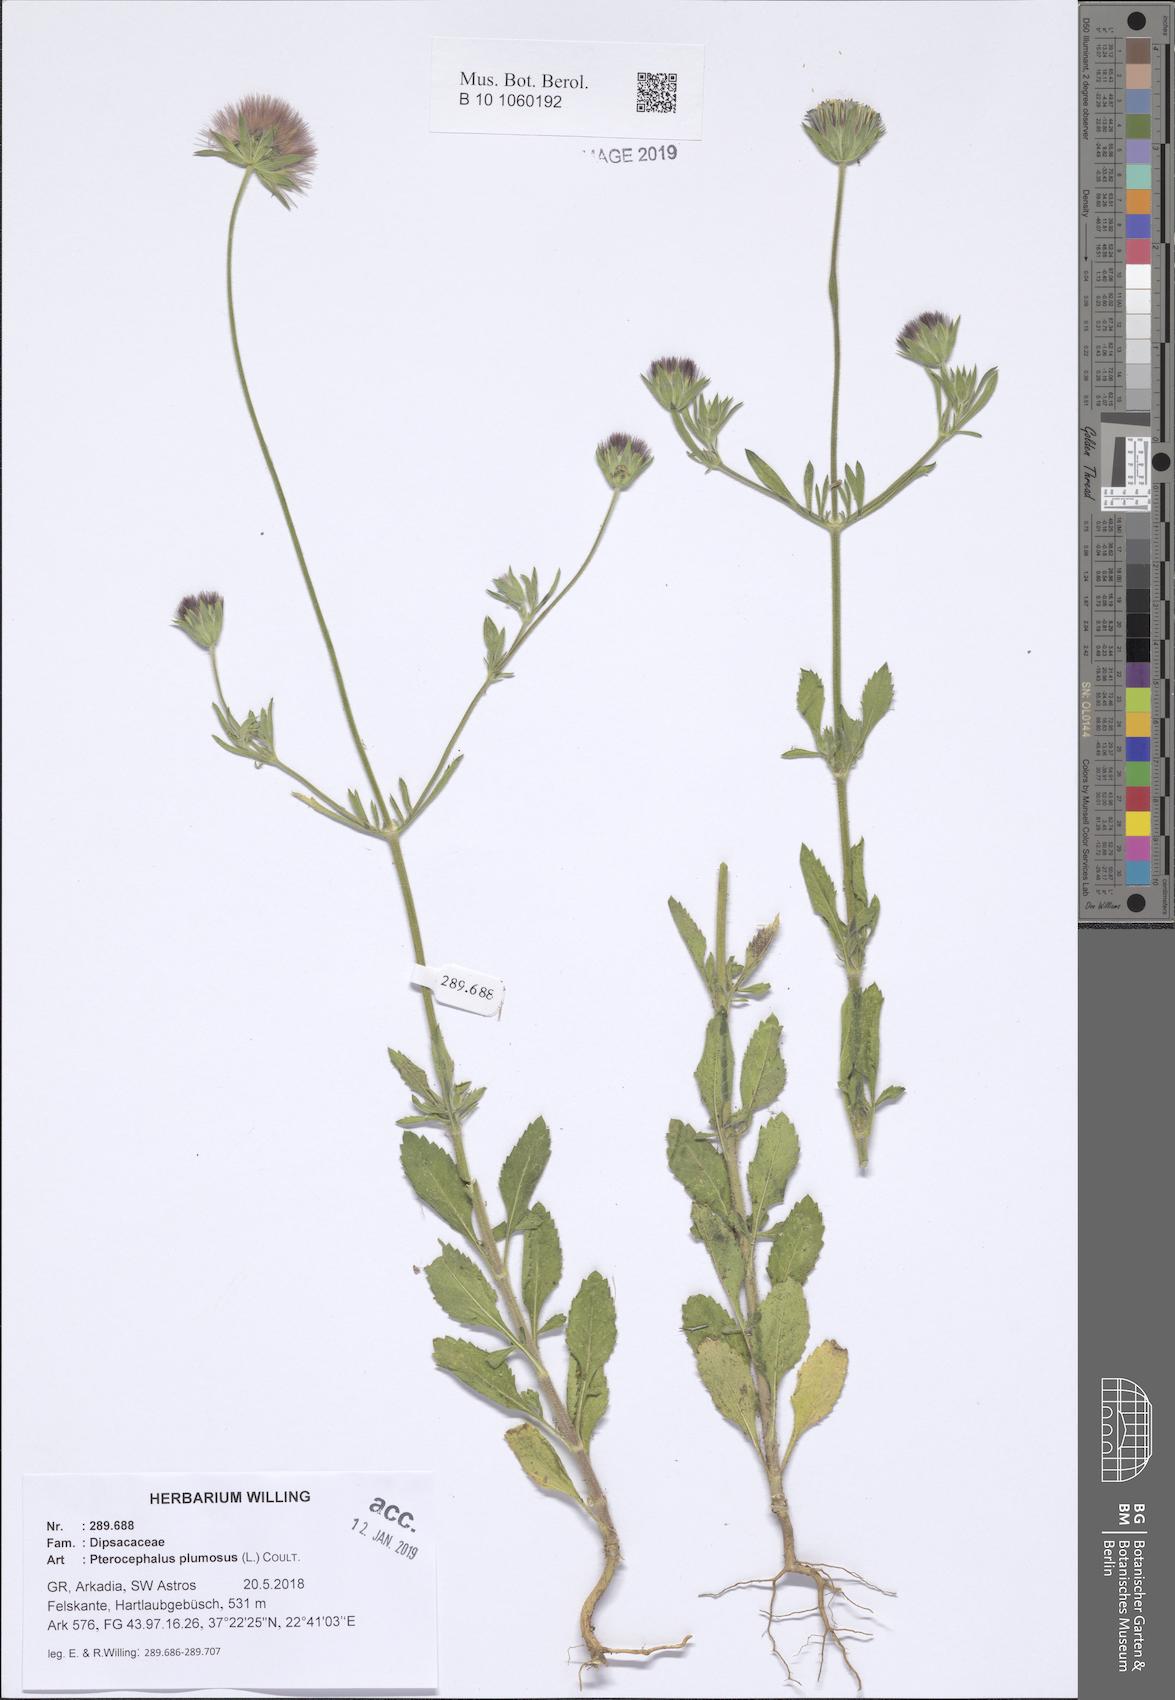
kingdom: Plantae
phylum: Tracheophyta
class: Magnoliopsida
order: Dipsacales
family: Caprifoliaceae
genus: Pterocephalus
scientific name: Pterocephalus plumosus
